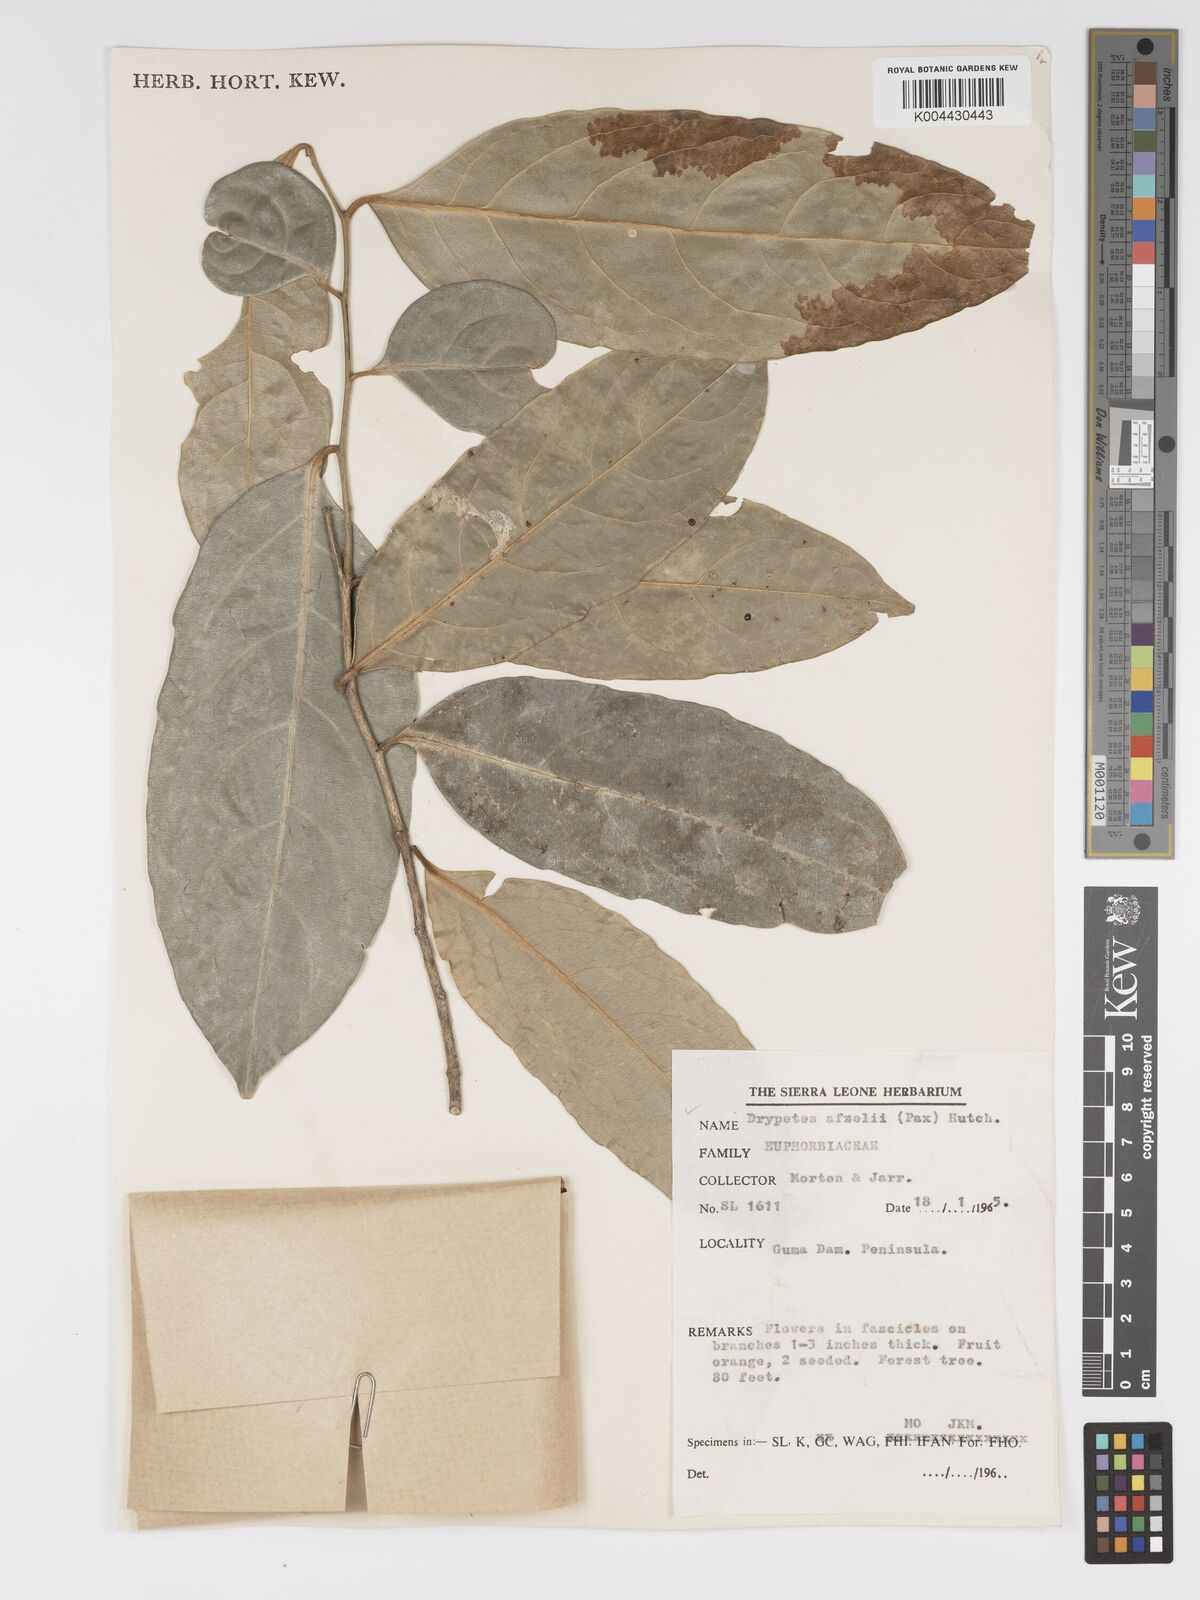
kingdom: Plantae
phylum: Tracheophyta
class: Magnoliopsida
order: Malpighiales
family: Putranjivaceae
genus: Drypetes
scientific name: Drypetes afzelii
